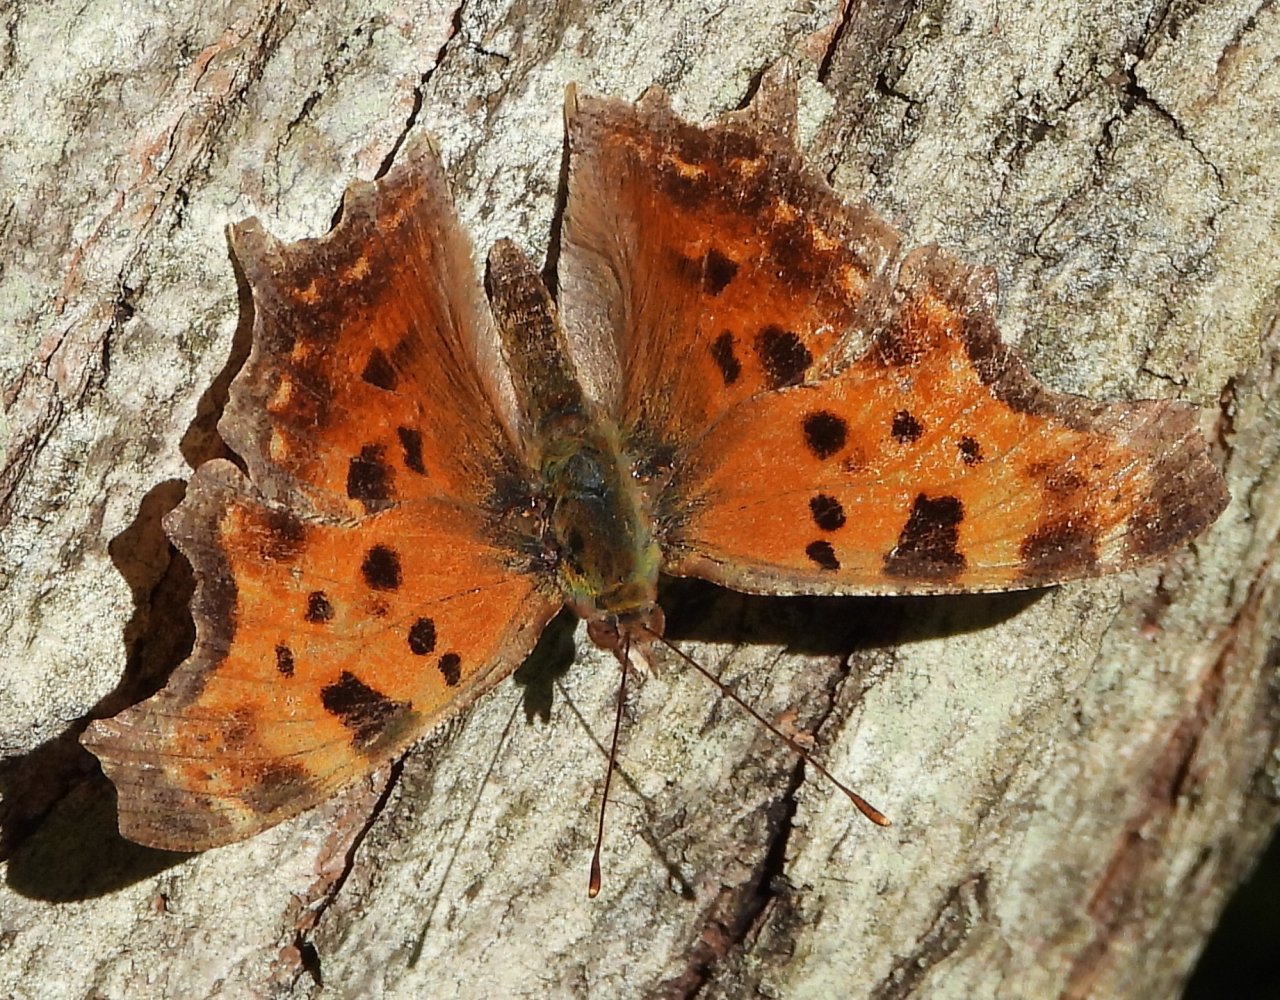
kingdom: Animalia
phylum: Arthropoda
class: Insecta
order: Lepidoptera
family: Nymphalidae
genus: Polygonia
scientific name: Polygonia comma
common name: Eastern Comma
